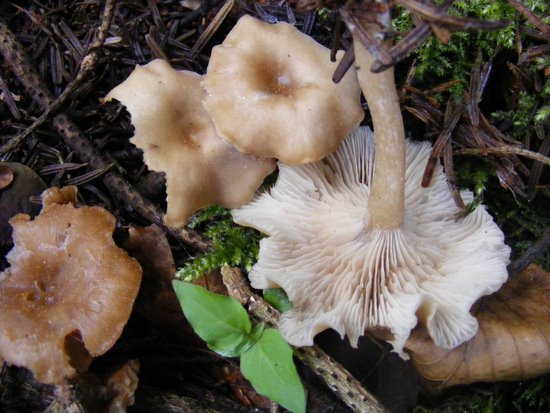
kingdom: Fungi
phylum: Basidiomycota
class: Agaricomycetes
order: Agaricales
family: Tricholomataceae
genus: Clitocybe
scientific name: Clitocybe fragrans
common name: vellugtende tragthat
